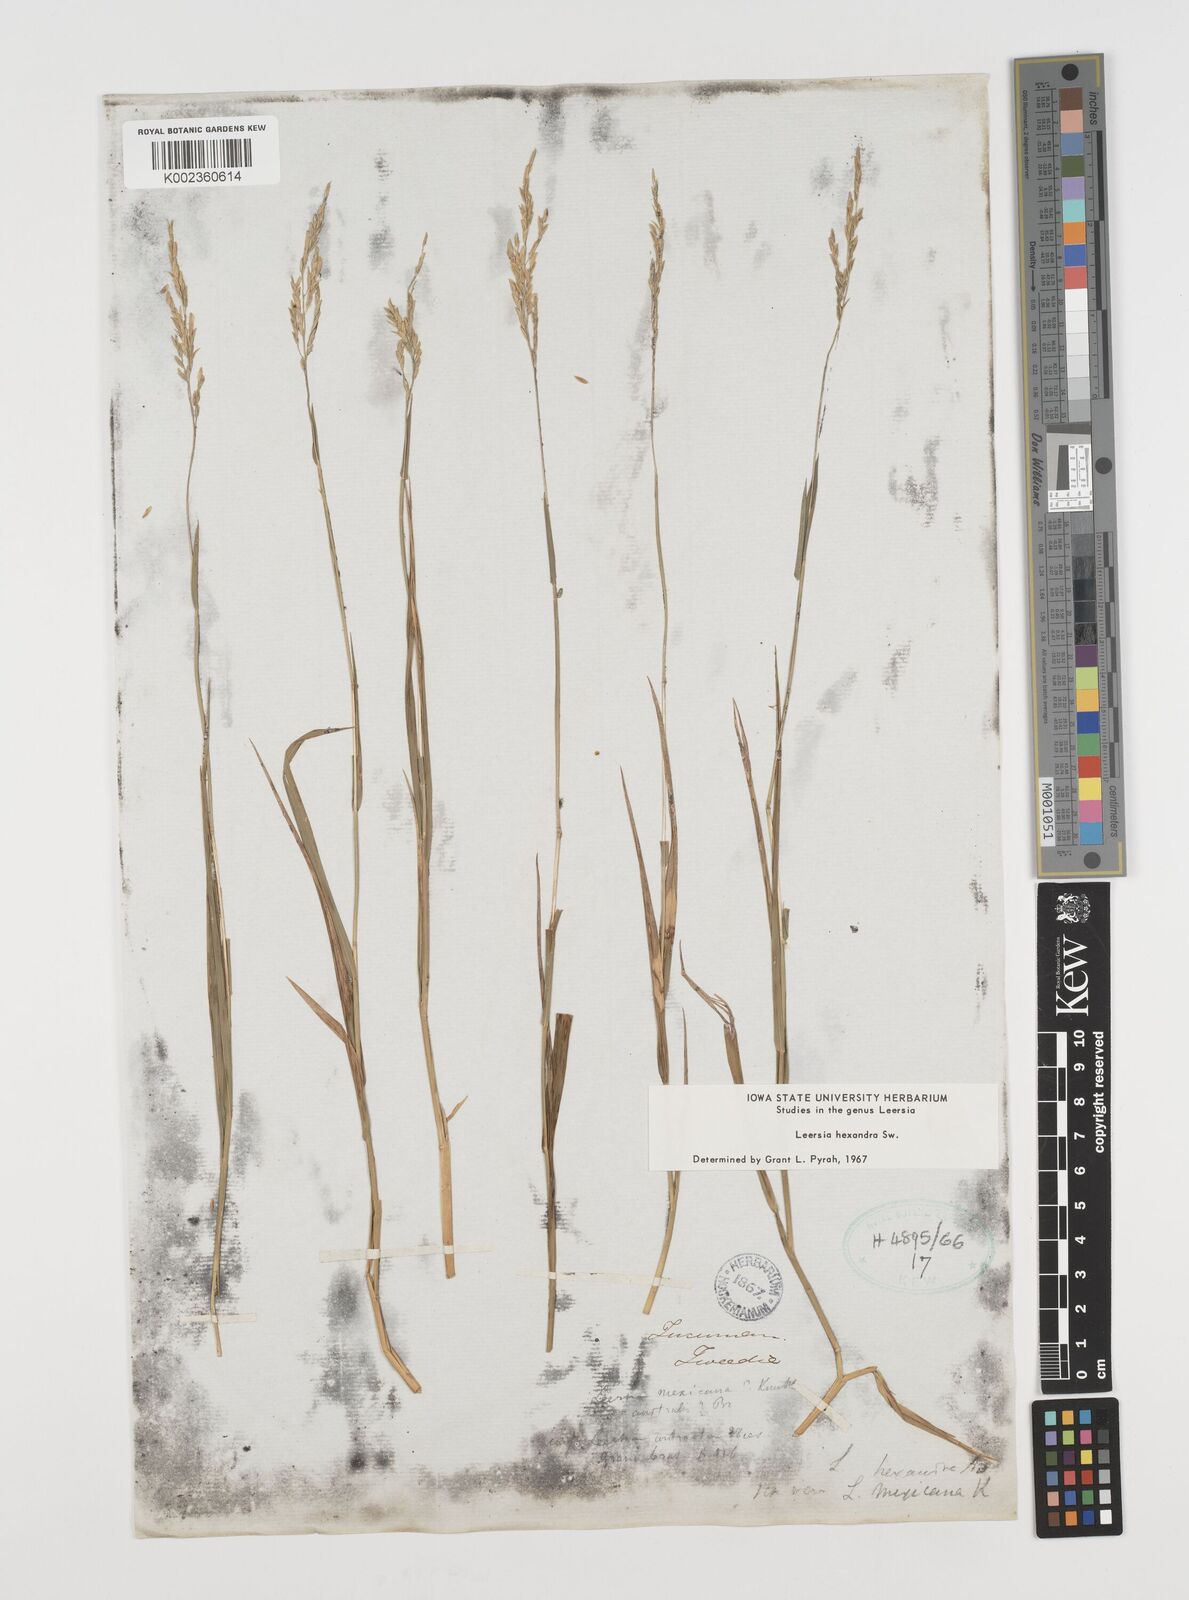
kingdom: Plantae
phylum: Tracheophyta
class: Liliopsida
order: Poales
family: Poaceae
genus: Leersia
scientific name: Leersia hexandra
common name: Southern cut grass
